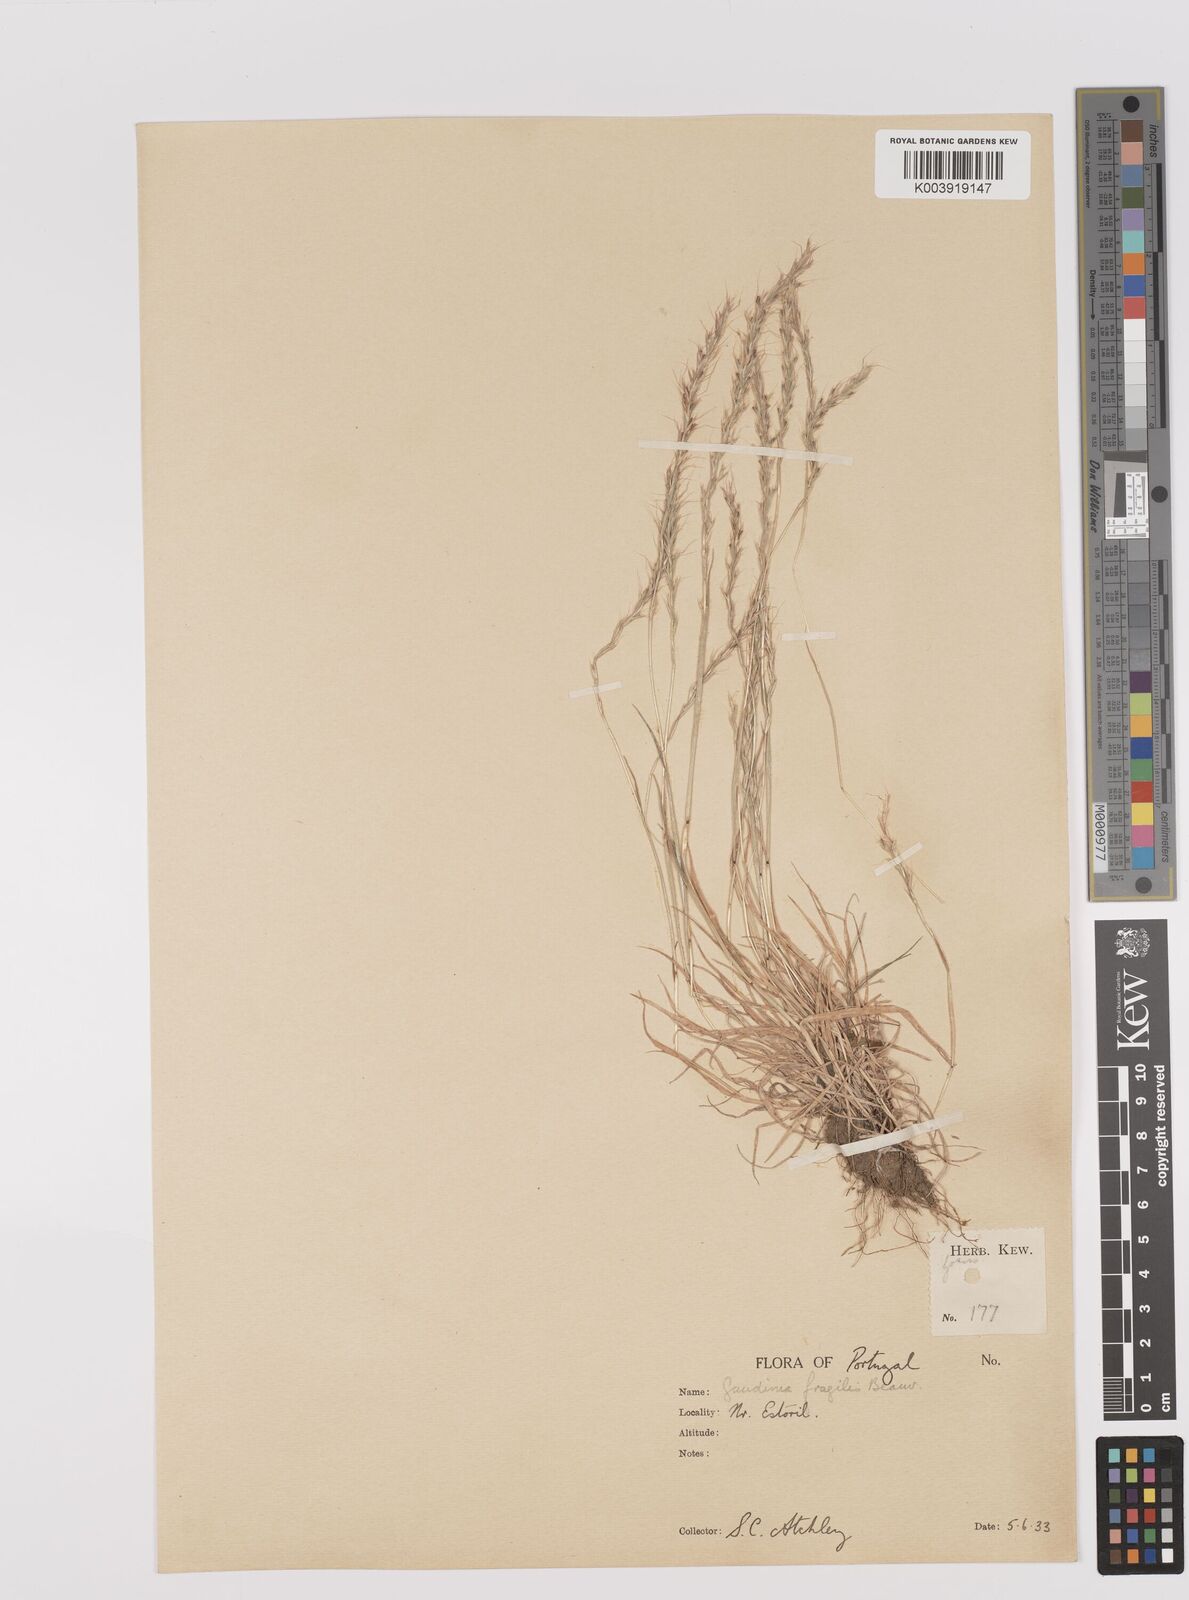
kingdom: Plantae
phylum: Tracheophyta
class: Liliopsida
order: Poales
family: Poaceae
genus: Gaudinia
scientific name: Gaudinia fragilis
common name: French oat-grass
